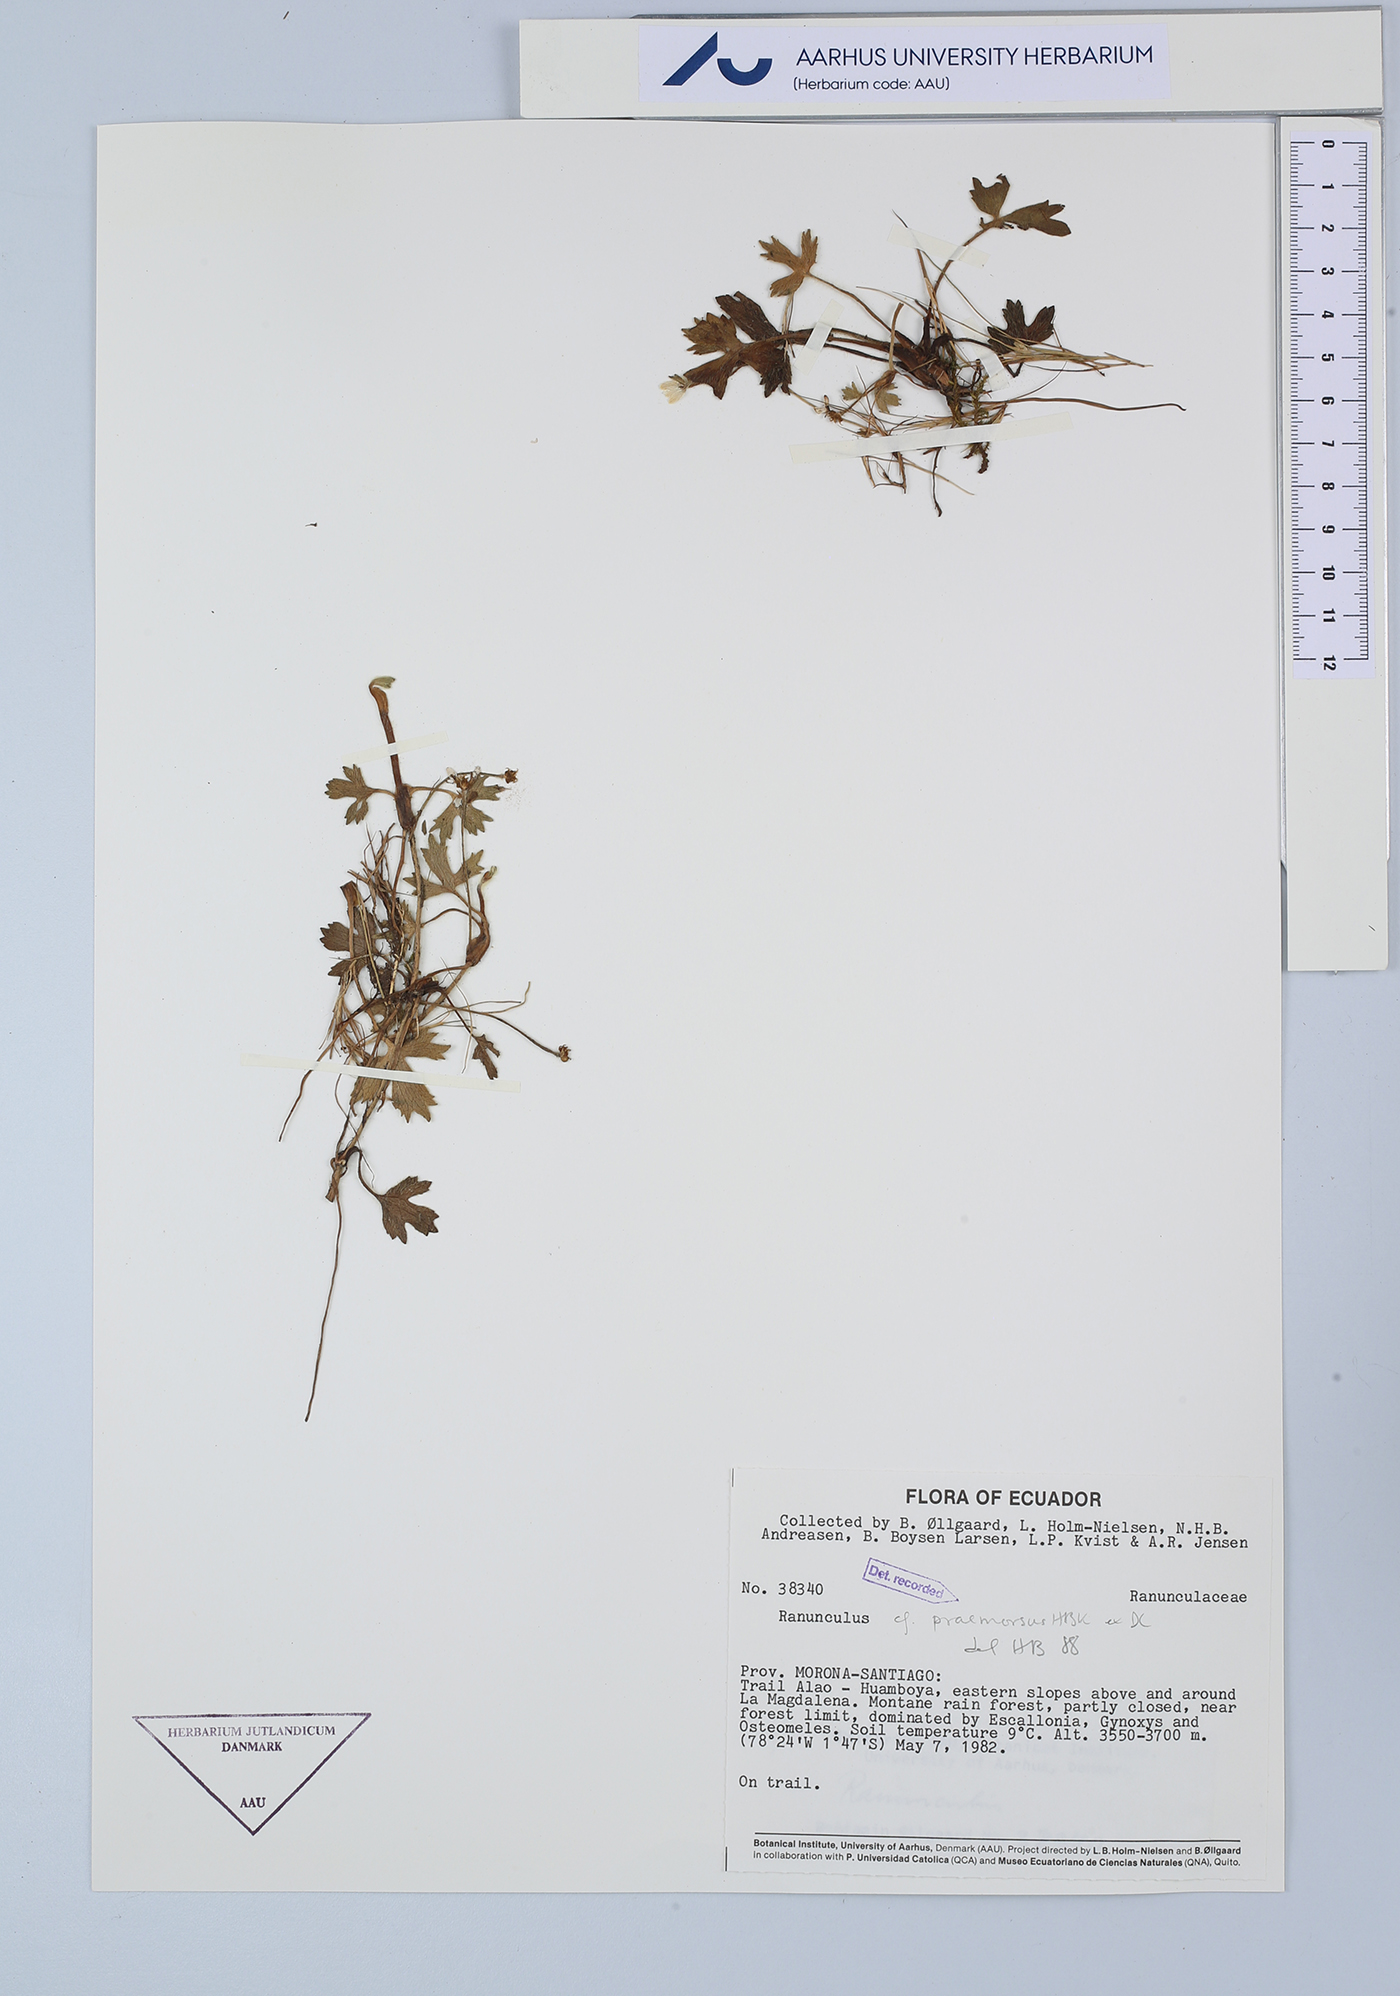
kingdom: Plantae
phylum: Tracheophyta
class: Magnoliopsida
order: Ranunculales
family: Ranunculaceae
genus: Ranunculus
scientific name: Ranunculus praemorsus
